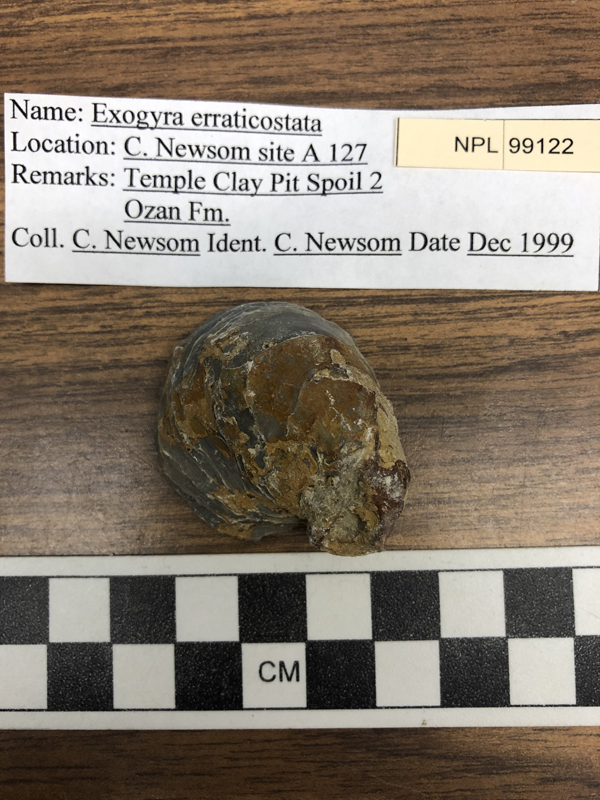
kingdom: Animalia
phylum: Mollusca
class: Bivalvia
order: Ostreida
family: Gryphaeidae
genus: Exogyra
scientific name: Exogyra
